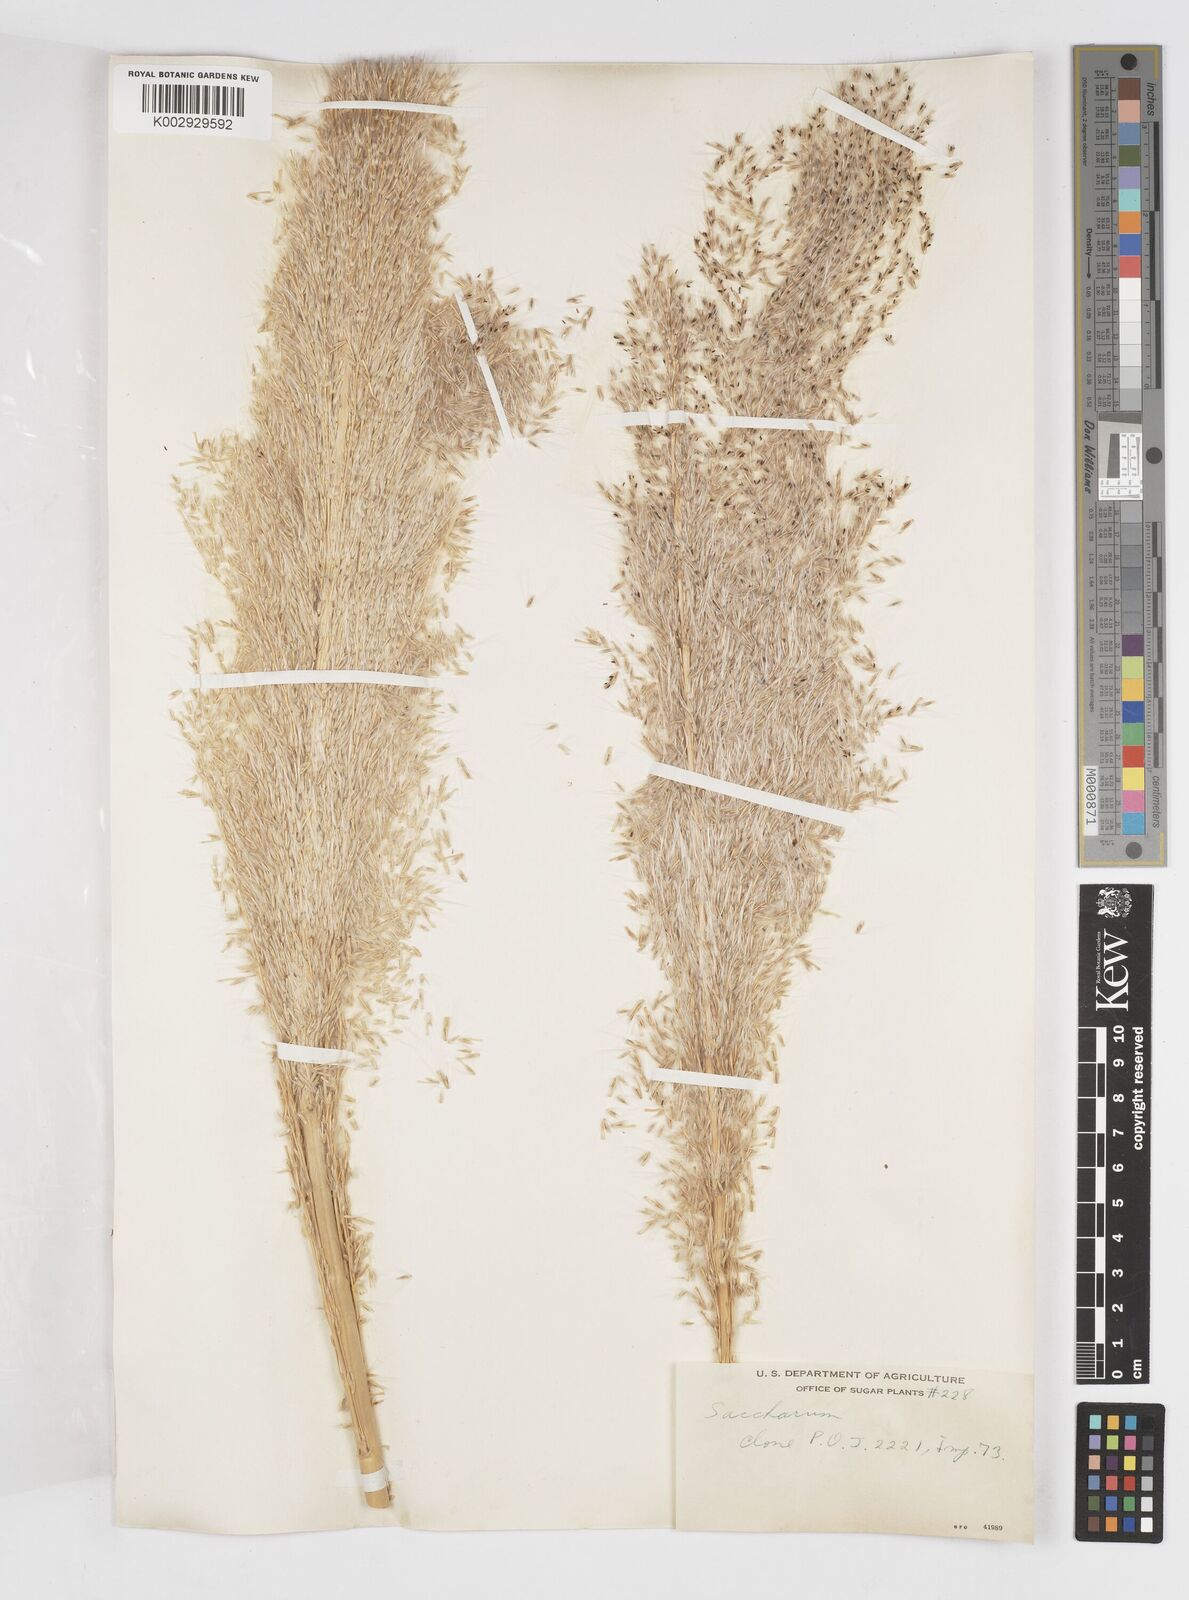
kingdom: Plantae
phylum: Tracheophyta
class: Liliopsida
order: Poales
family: Poaceae
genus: Saccharum
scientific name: Saccharum officinarum
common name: Sugarcane
